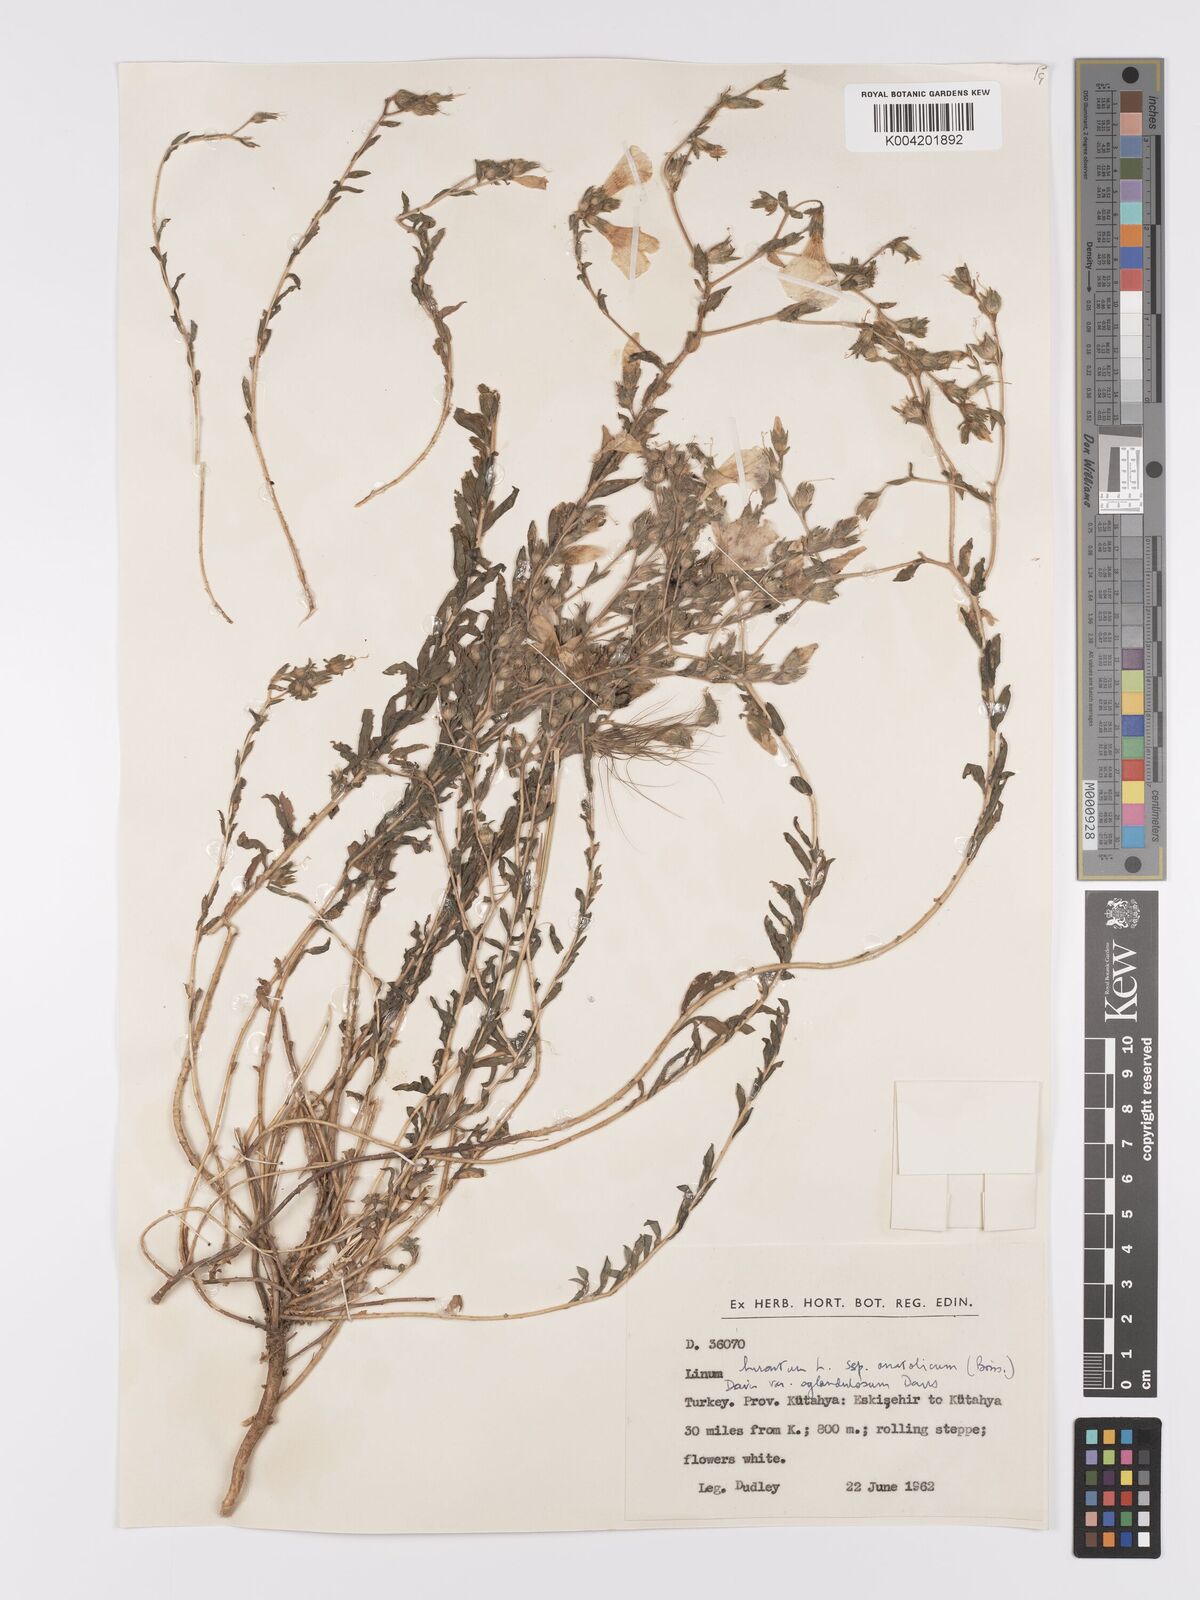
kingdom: Plantae
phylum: Tracheophyta
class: Magnoliopsida
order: Malpighiales
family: Linaceae
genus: Linum
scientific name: Linum
